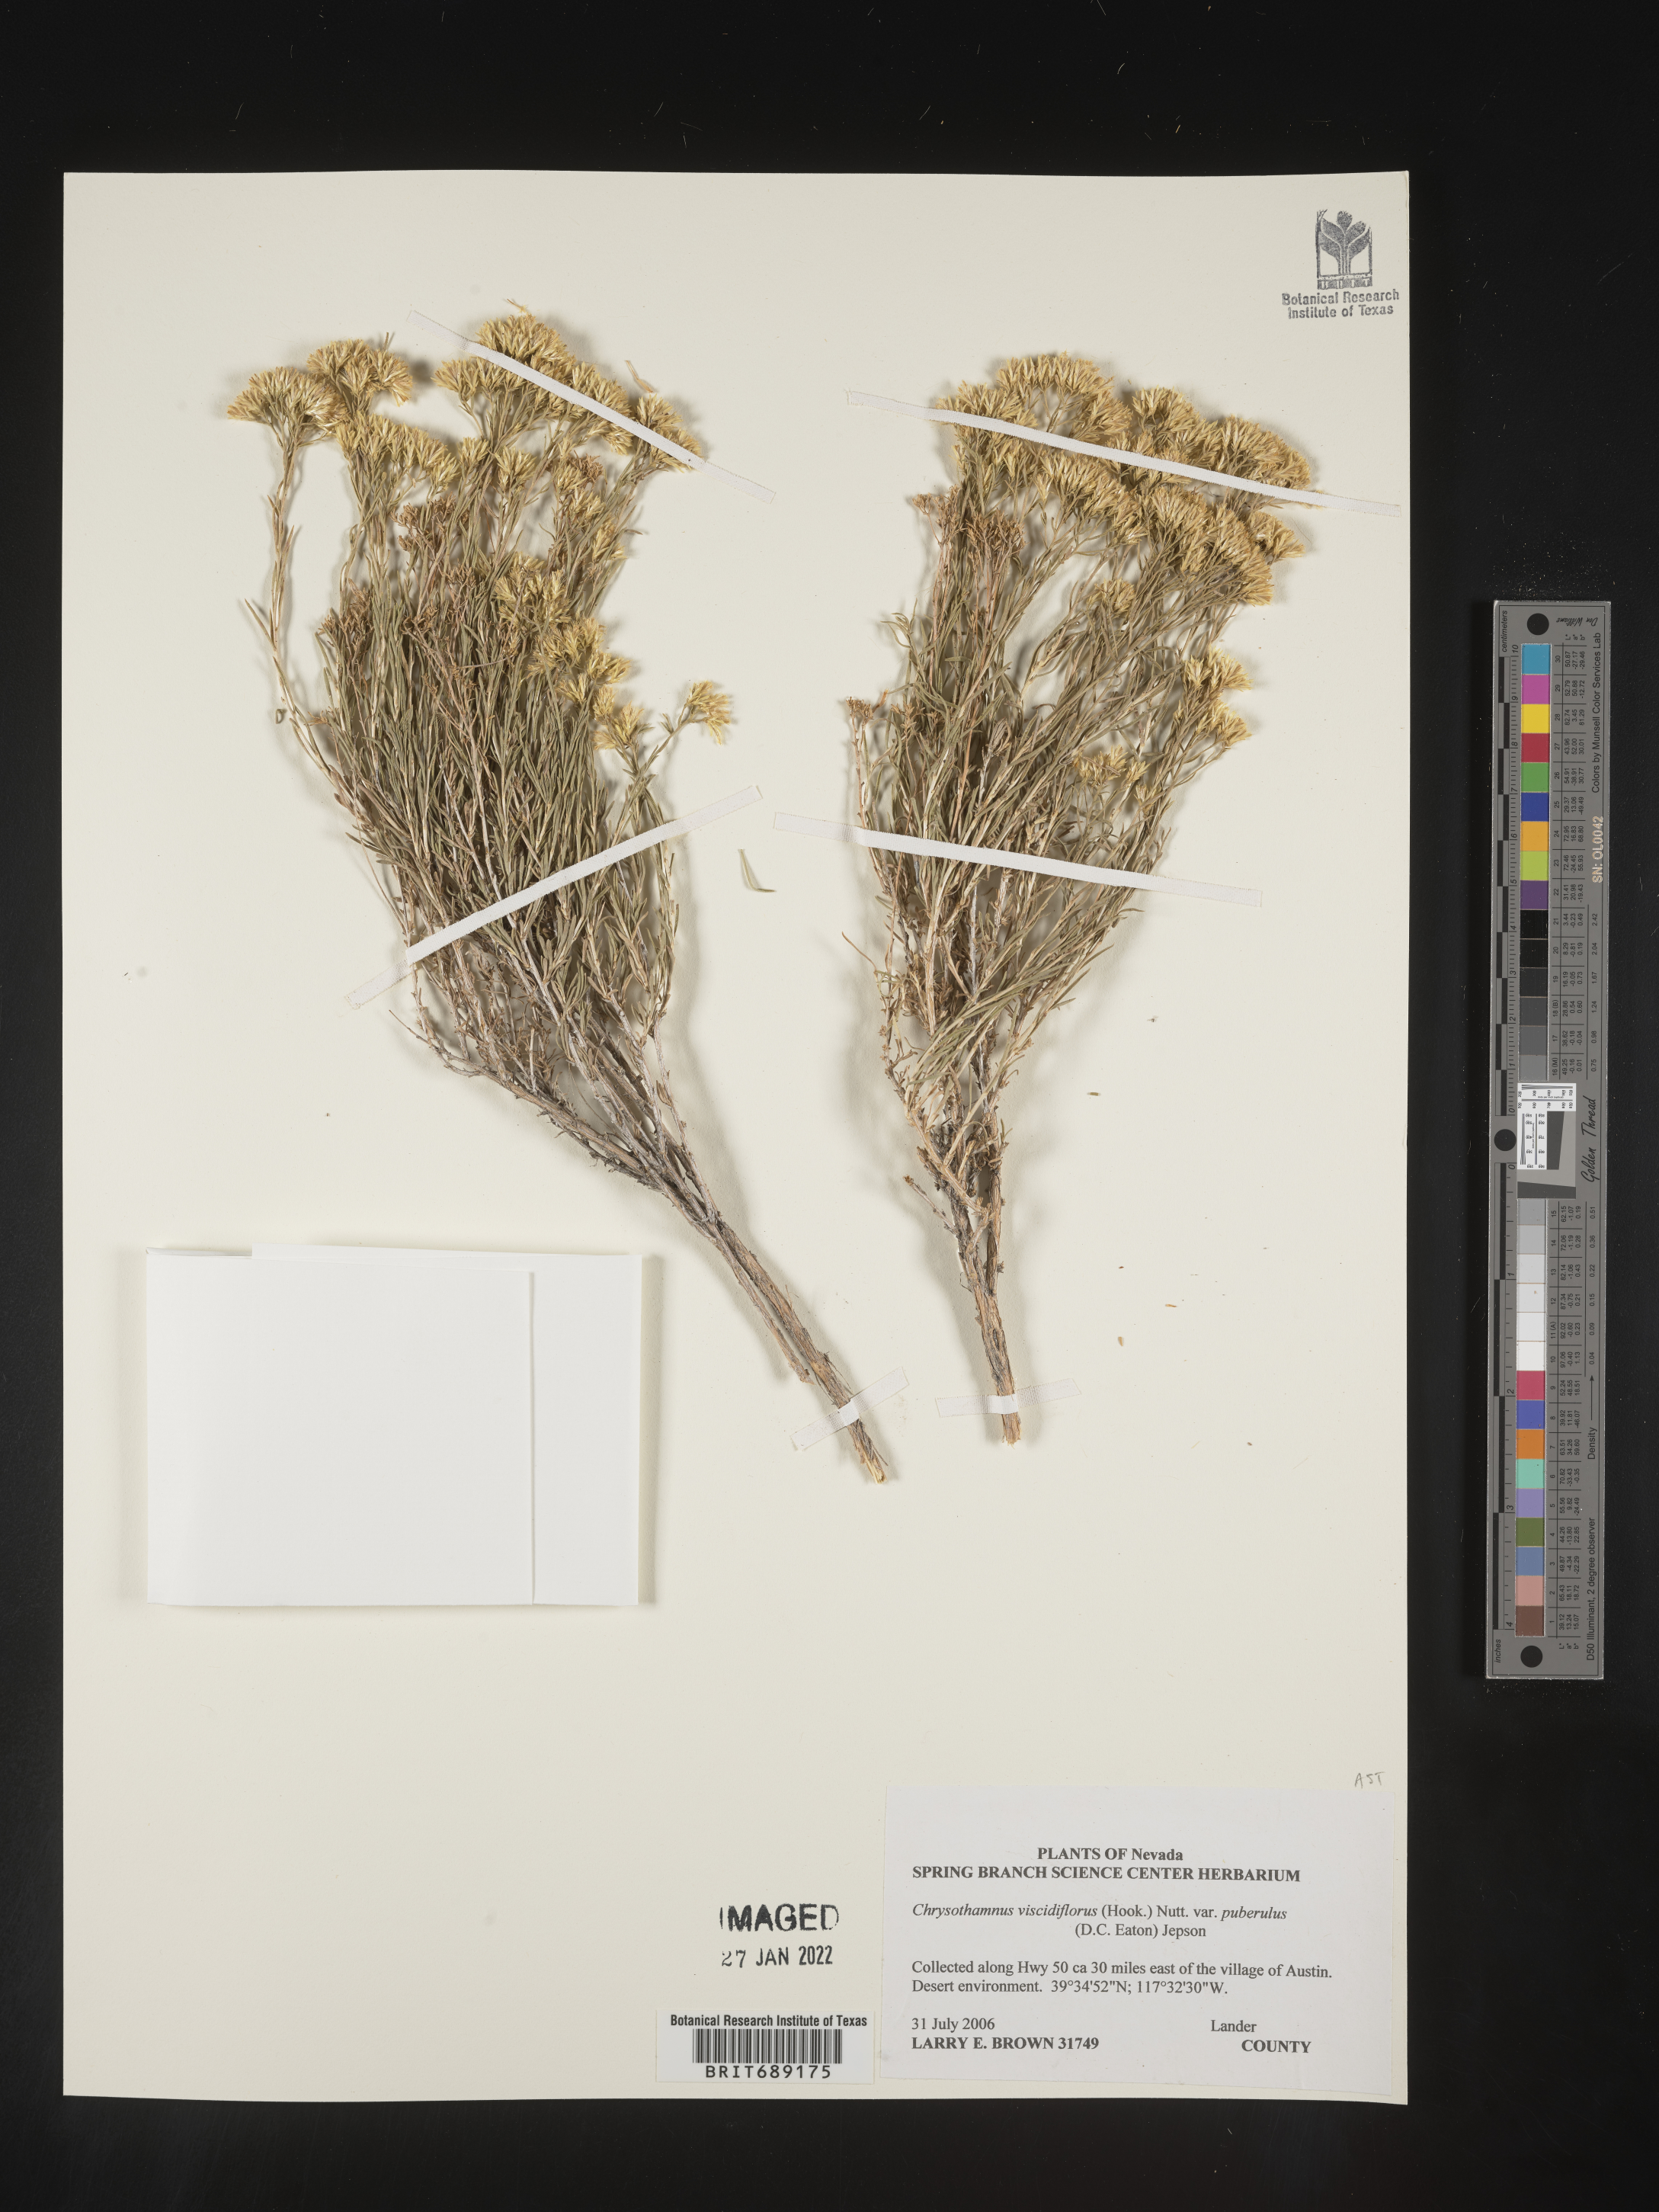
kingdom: Plantae
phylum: Tracheophyta
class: Magnoliopsida
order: Asterales
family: Asteraceae
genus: Chrysothamnus
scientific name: Chrysothamnus
